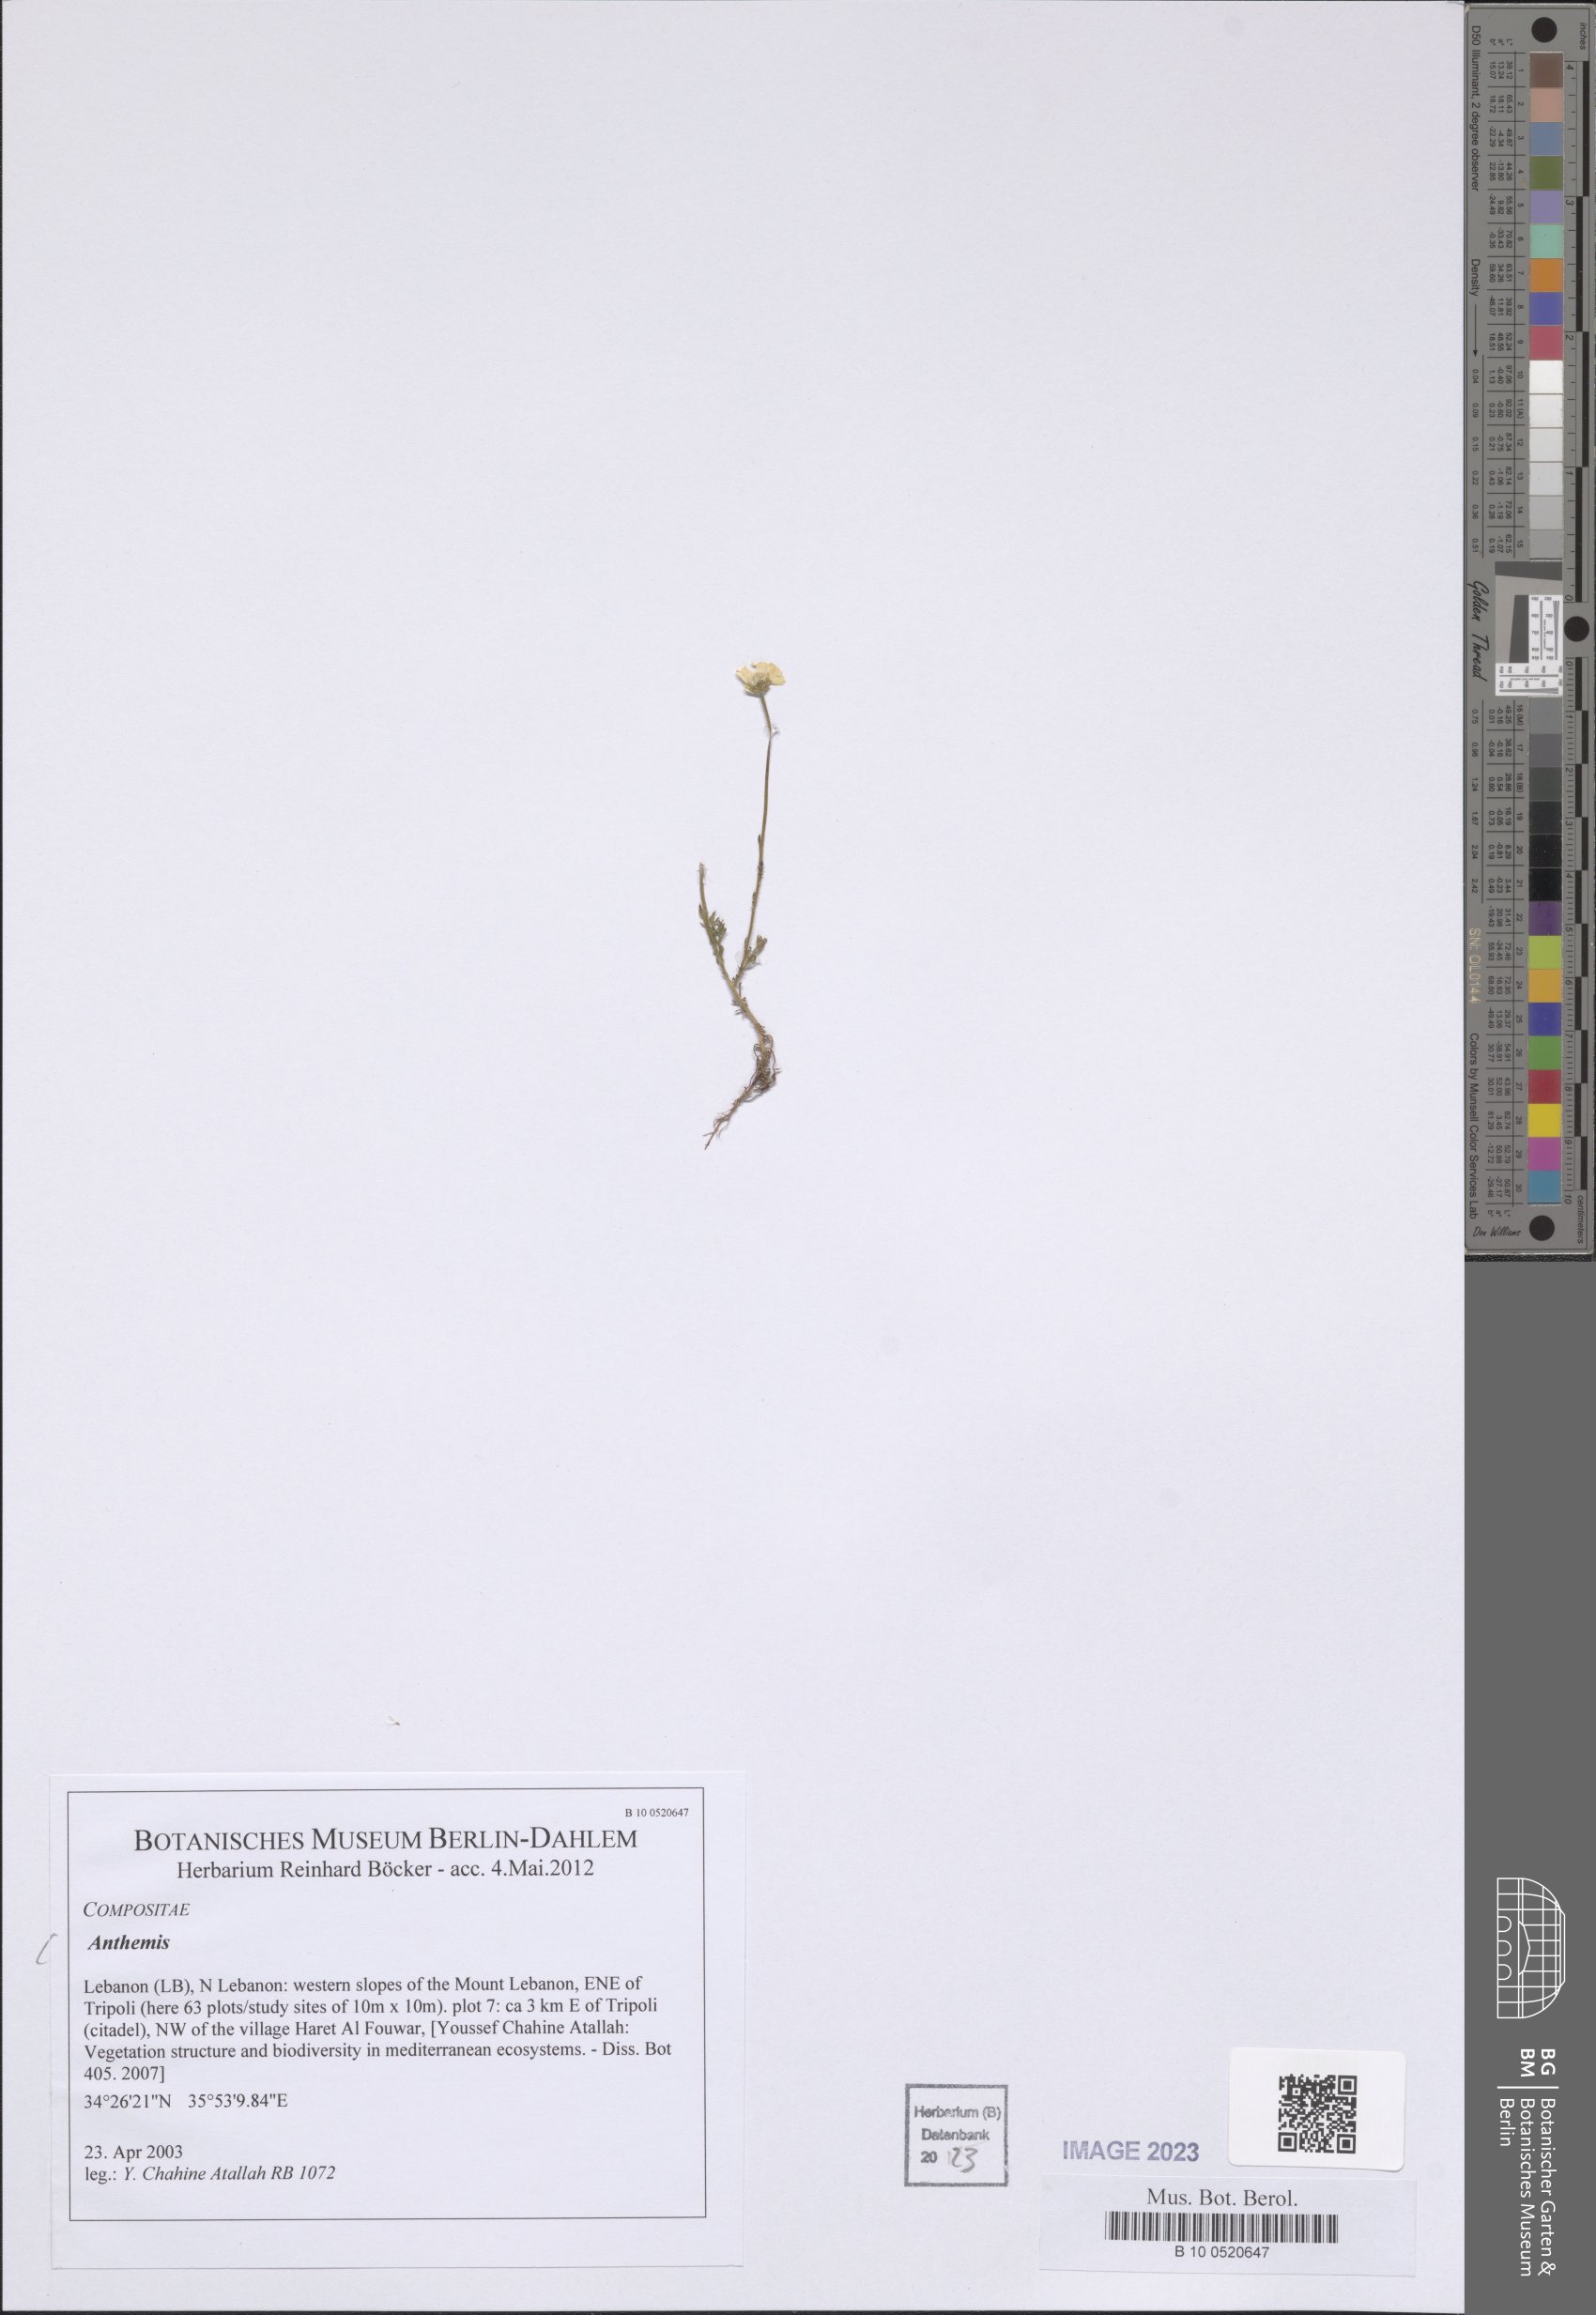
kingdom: Plantae
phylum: Tracheophyta
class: Magnoliopsida
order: Asterales
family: Asteraceae
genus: Anthemis
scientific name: Anthemis
